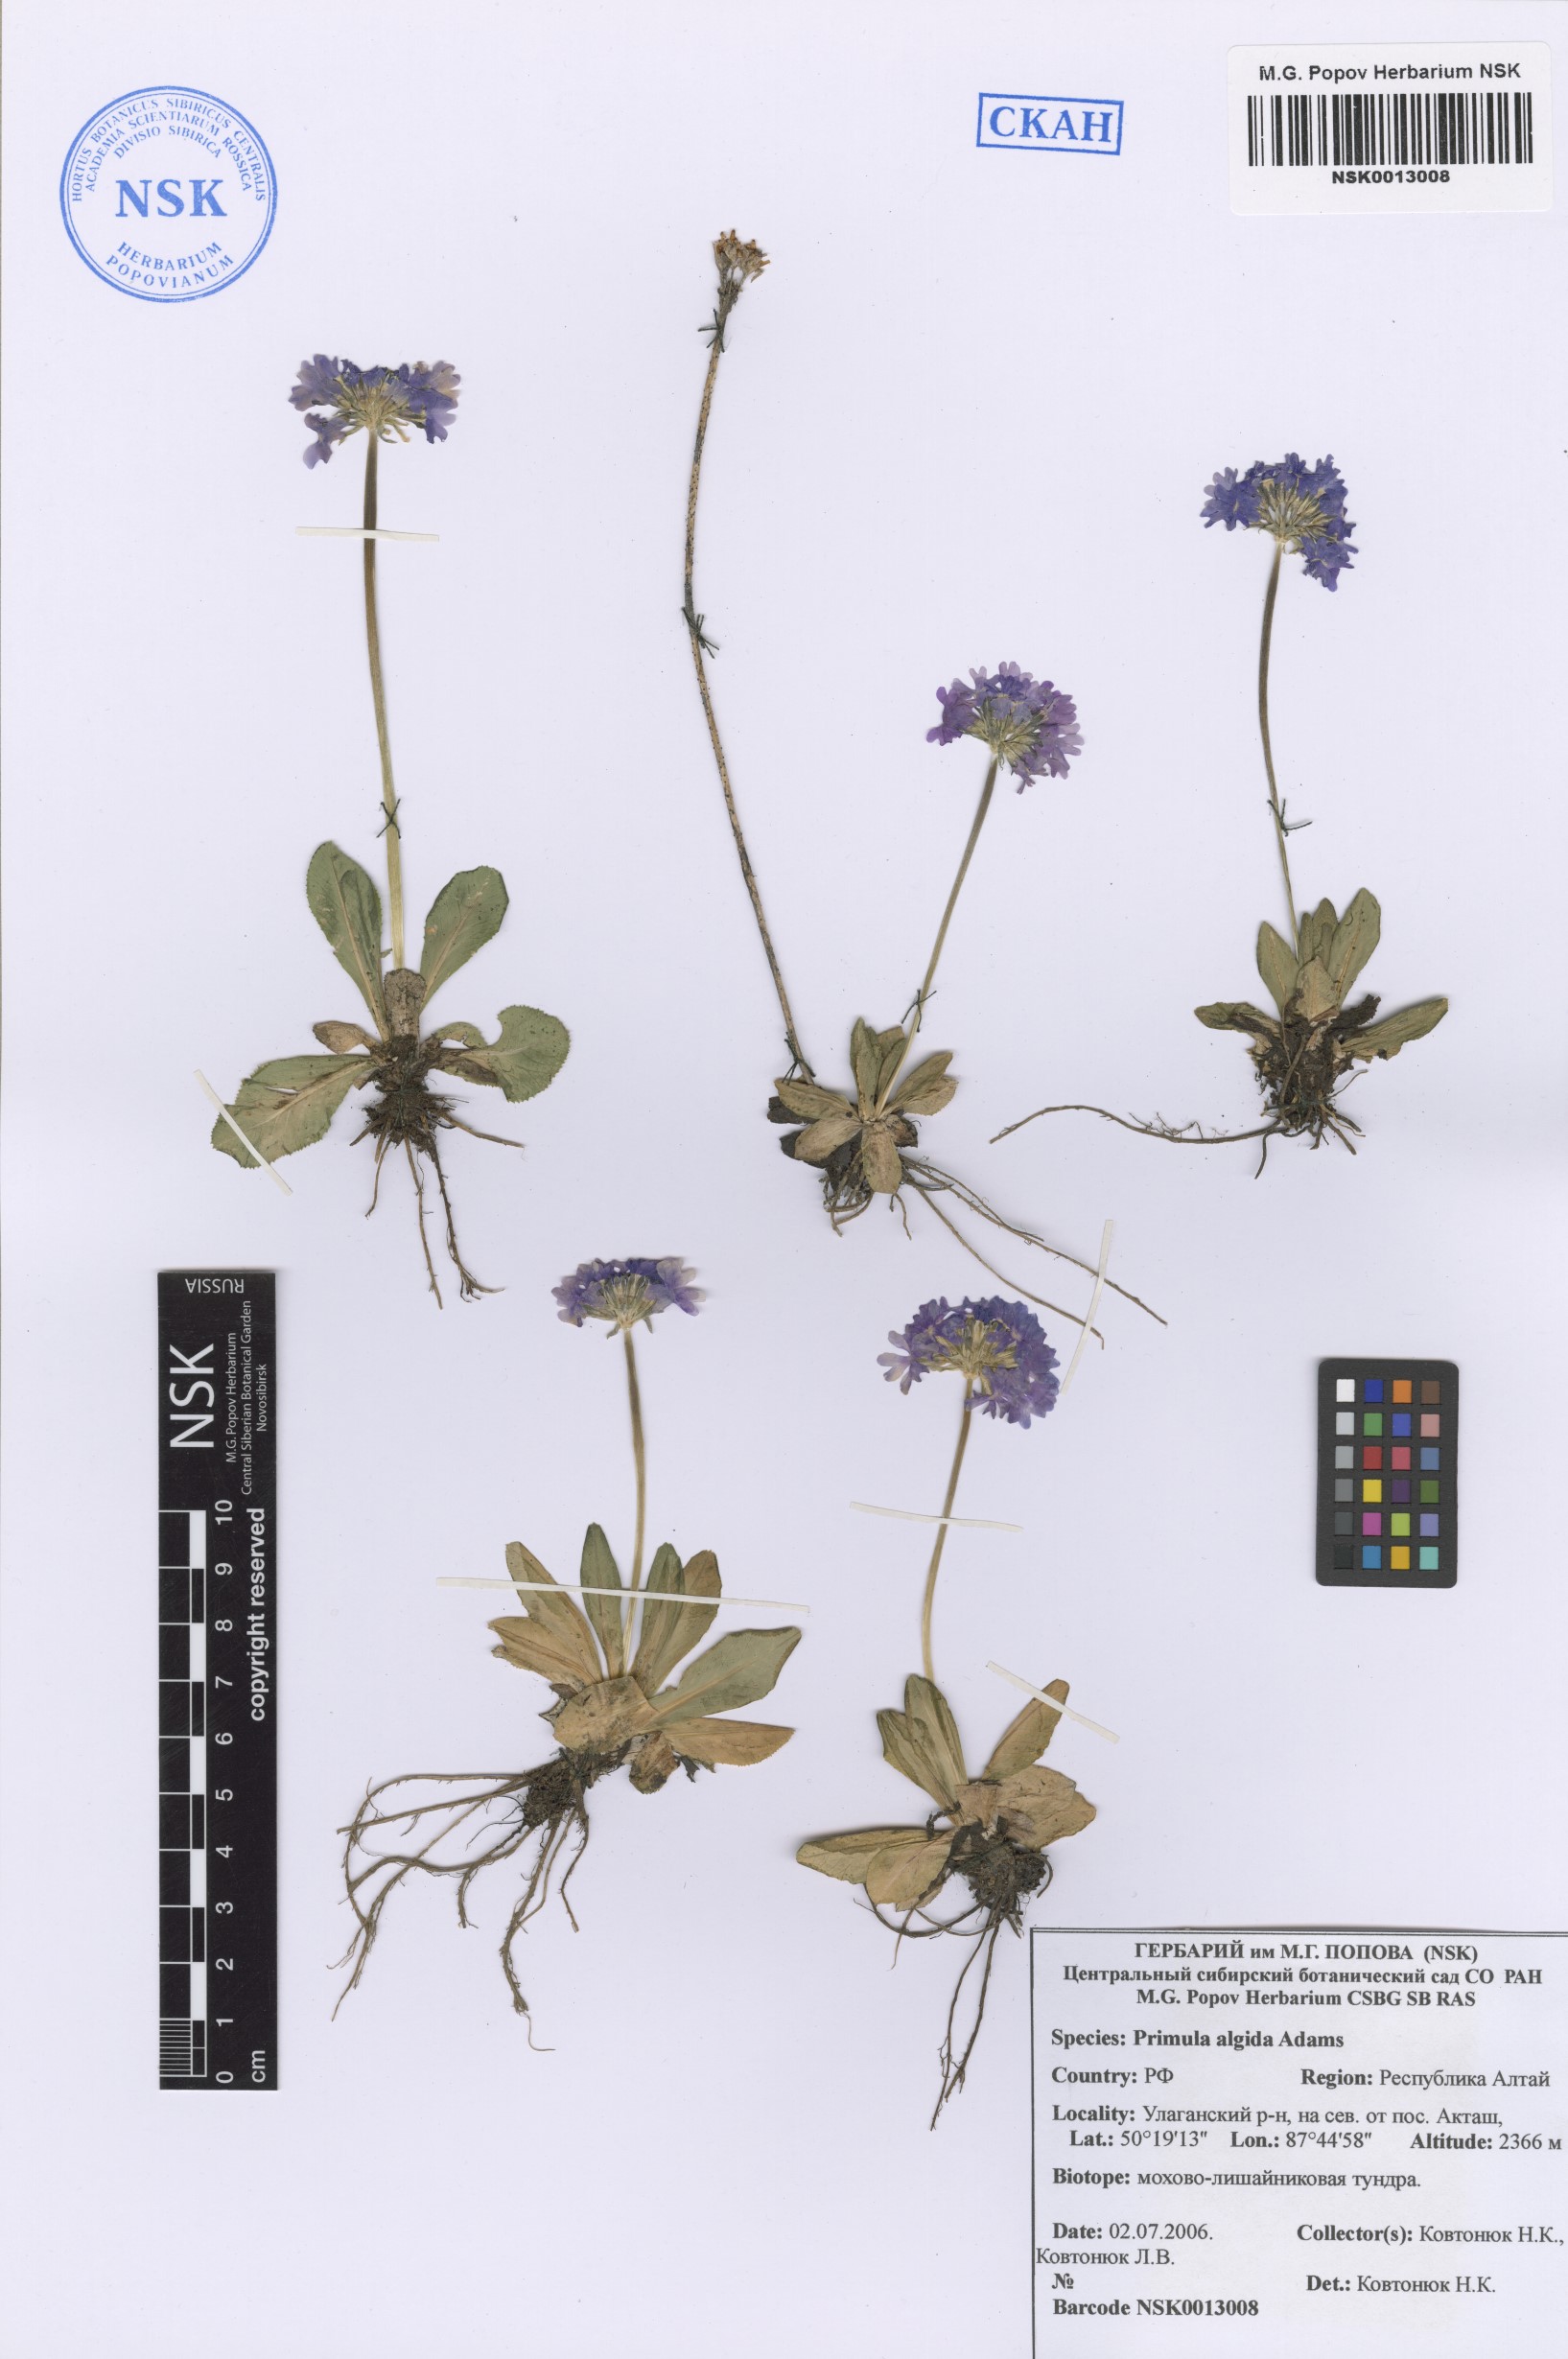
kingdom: Plantae
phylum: Tracheophyta
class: Magnoliopsida
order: Ericales
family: Primulaceae
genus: Primula
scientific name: Primula algida
